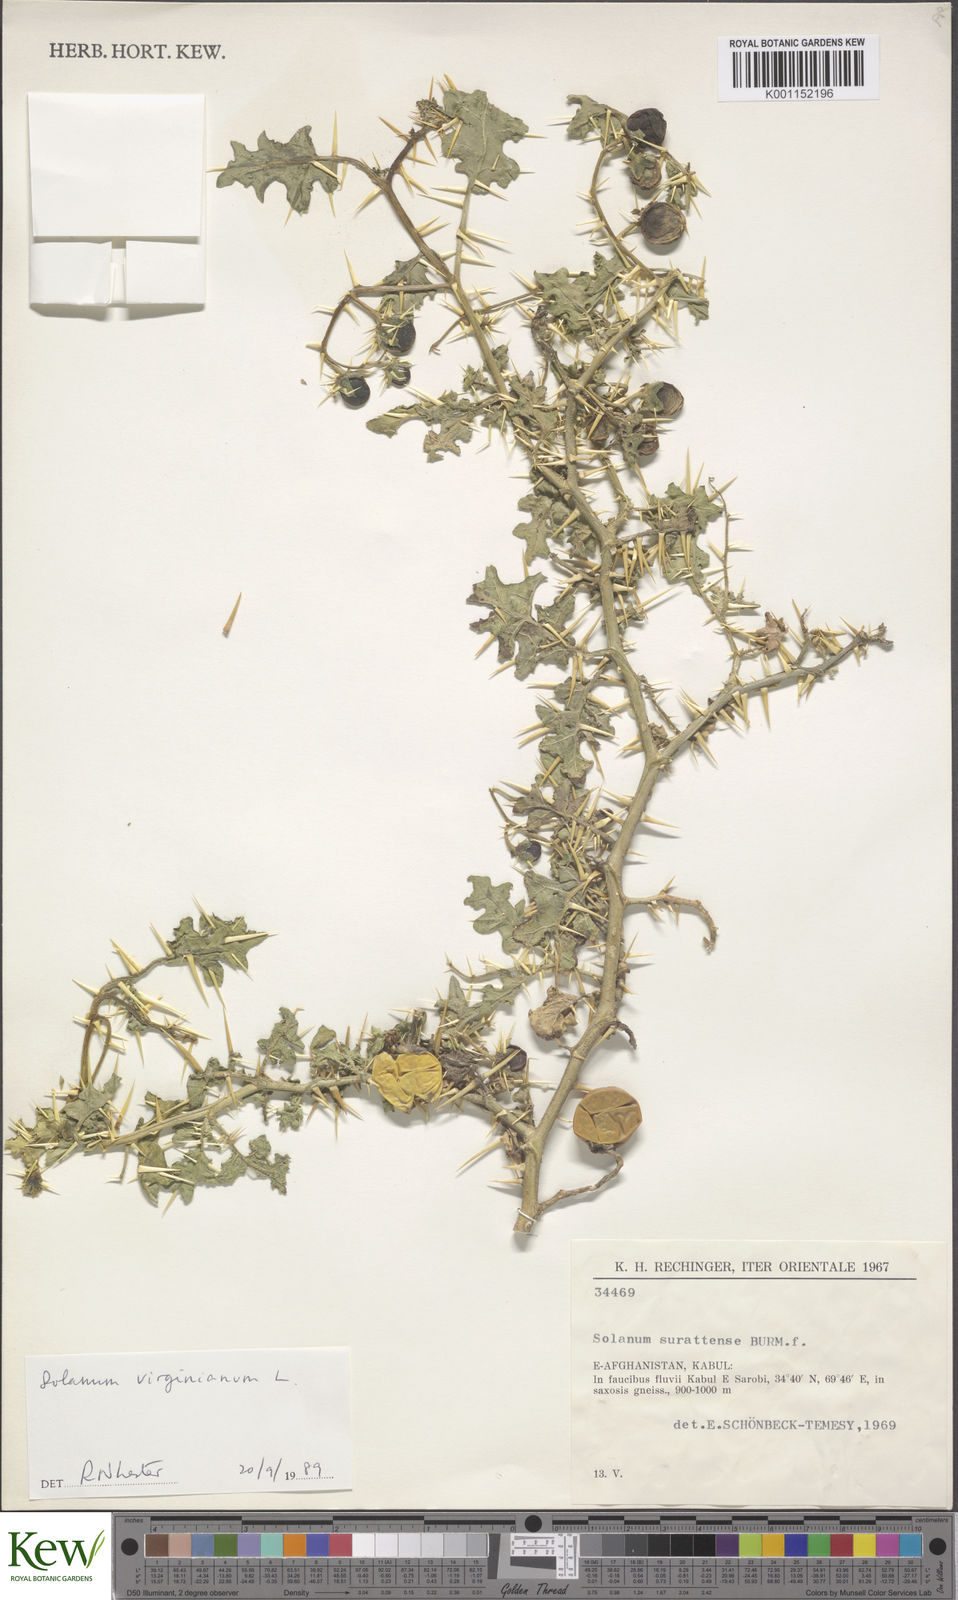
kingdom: Plantae
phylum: Tracheophyta
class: Magnoliopsida
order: Solanales
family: Solanaceae
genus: Solanum
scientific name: Solanum virginianum
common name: Surattense nightshade
